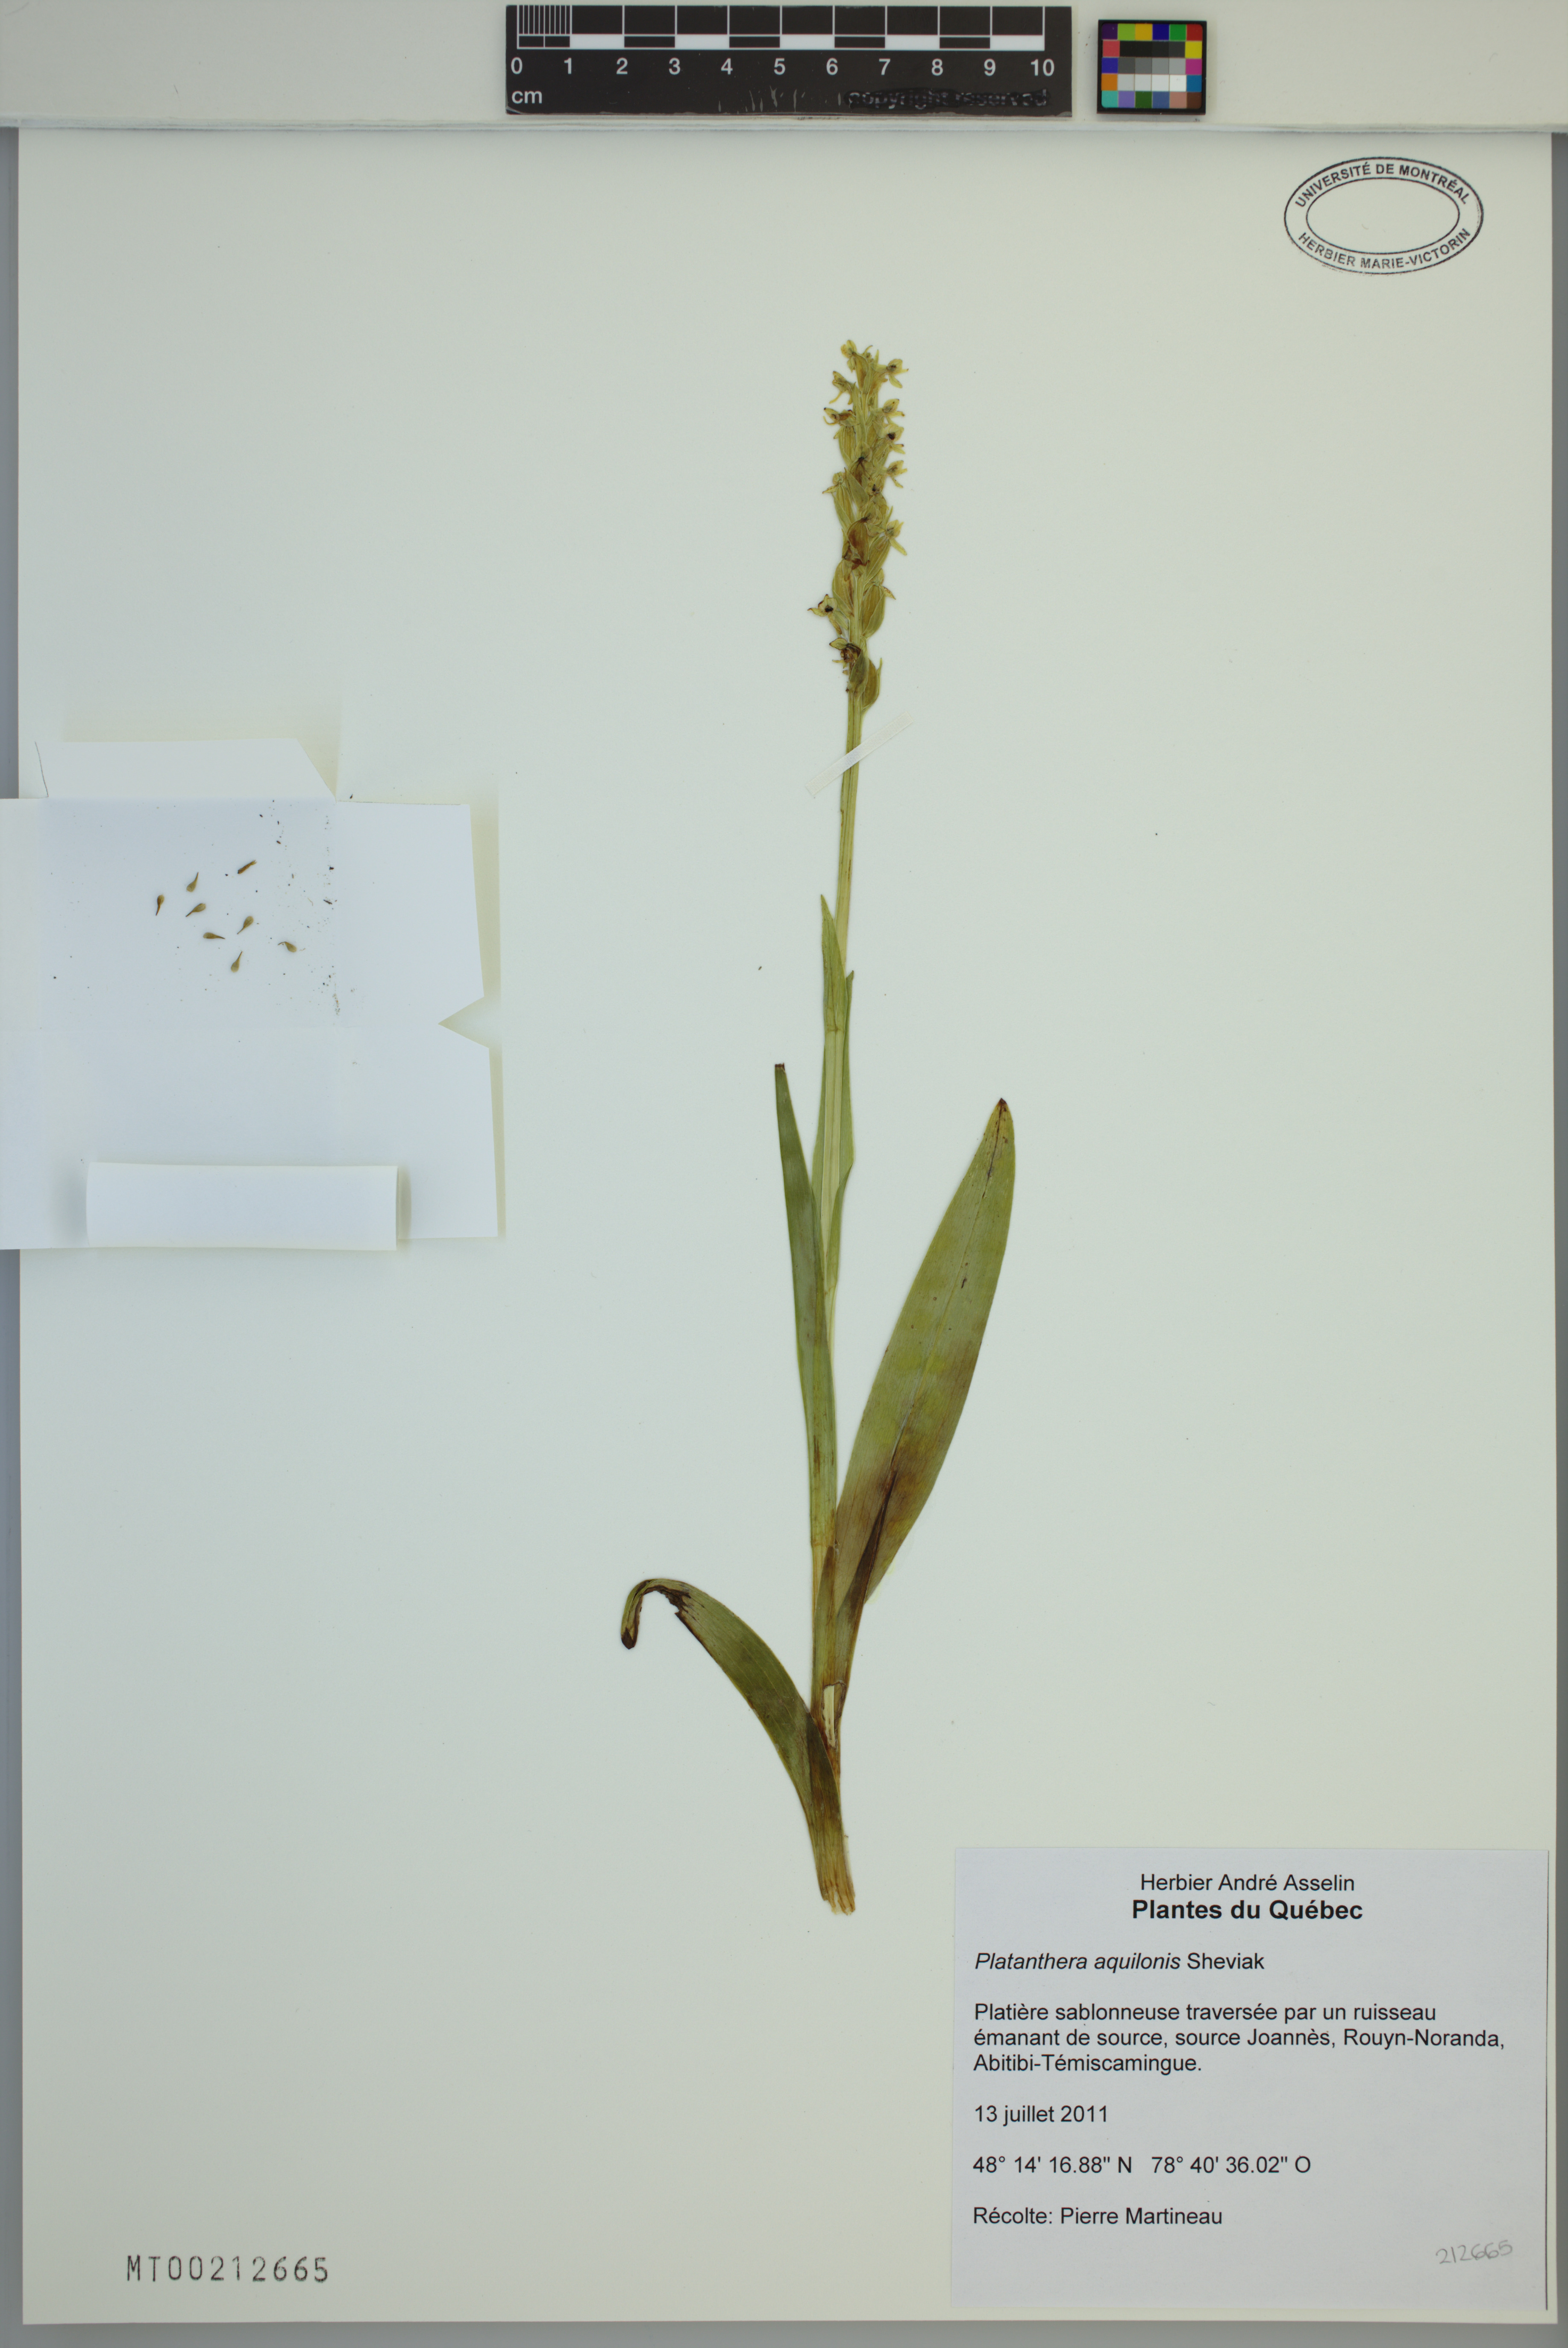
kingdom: Plantae
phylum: Tracheophyta
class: Liliopsida
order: Asparagales
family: Orchidaceae
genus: Platanthera
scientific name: Platanthera aquilonis
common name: Northern green orchid
